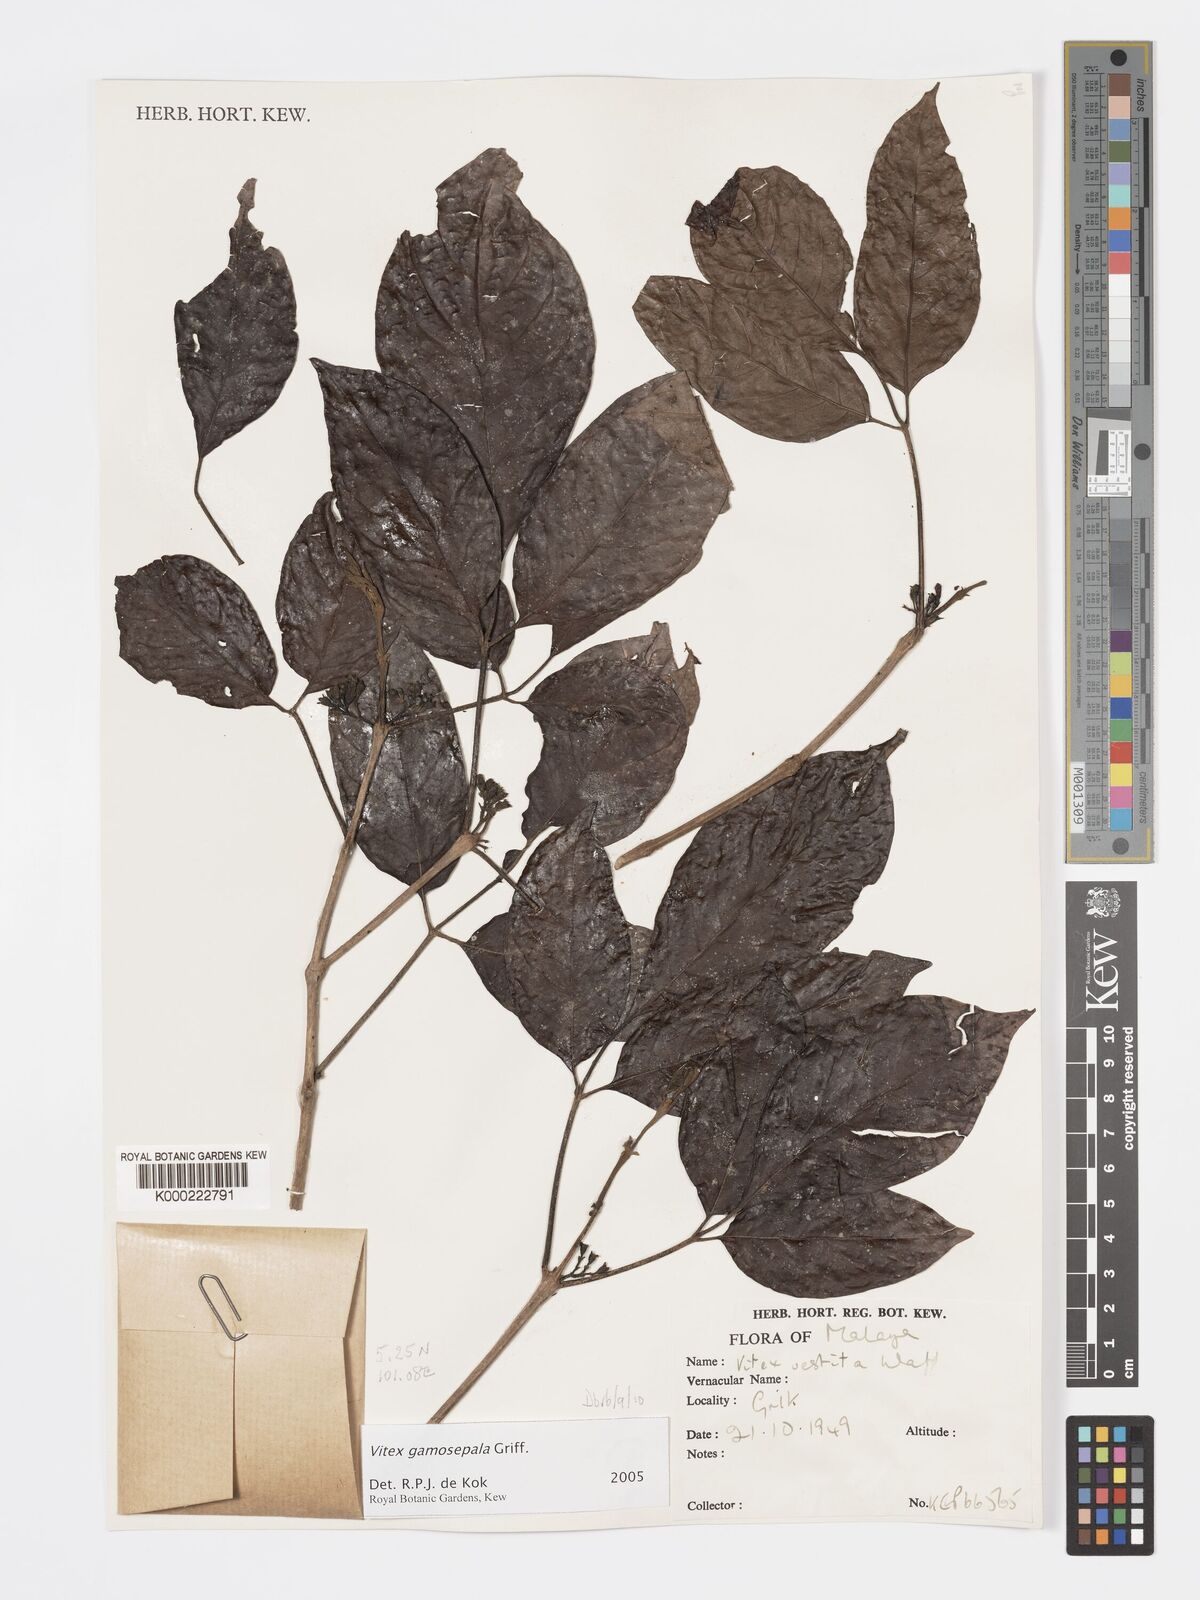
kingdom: Plantae
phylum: Tracheophyta
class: Magnoliopsida
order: Lamiales
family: Lamiaceae
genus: Vitex
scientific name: Vitex gamosepala
